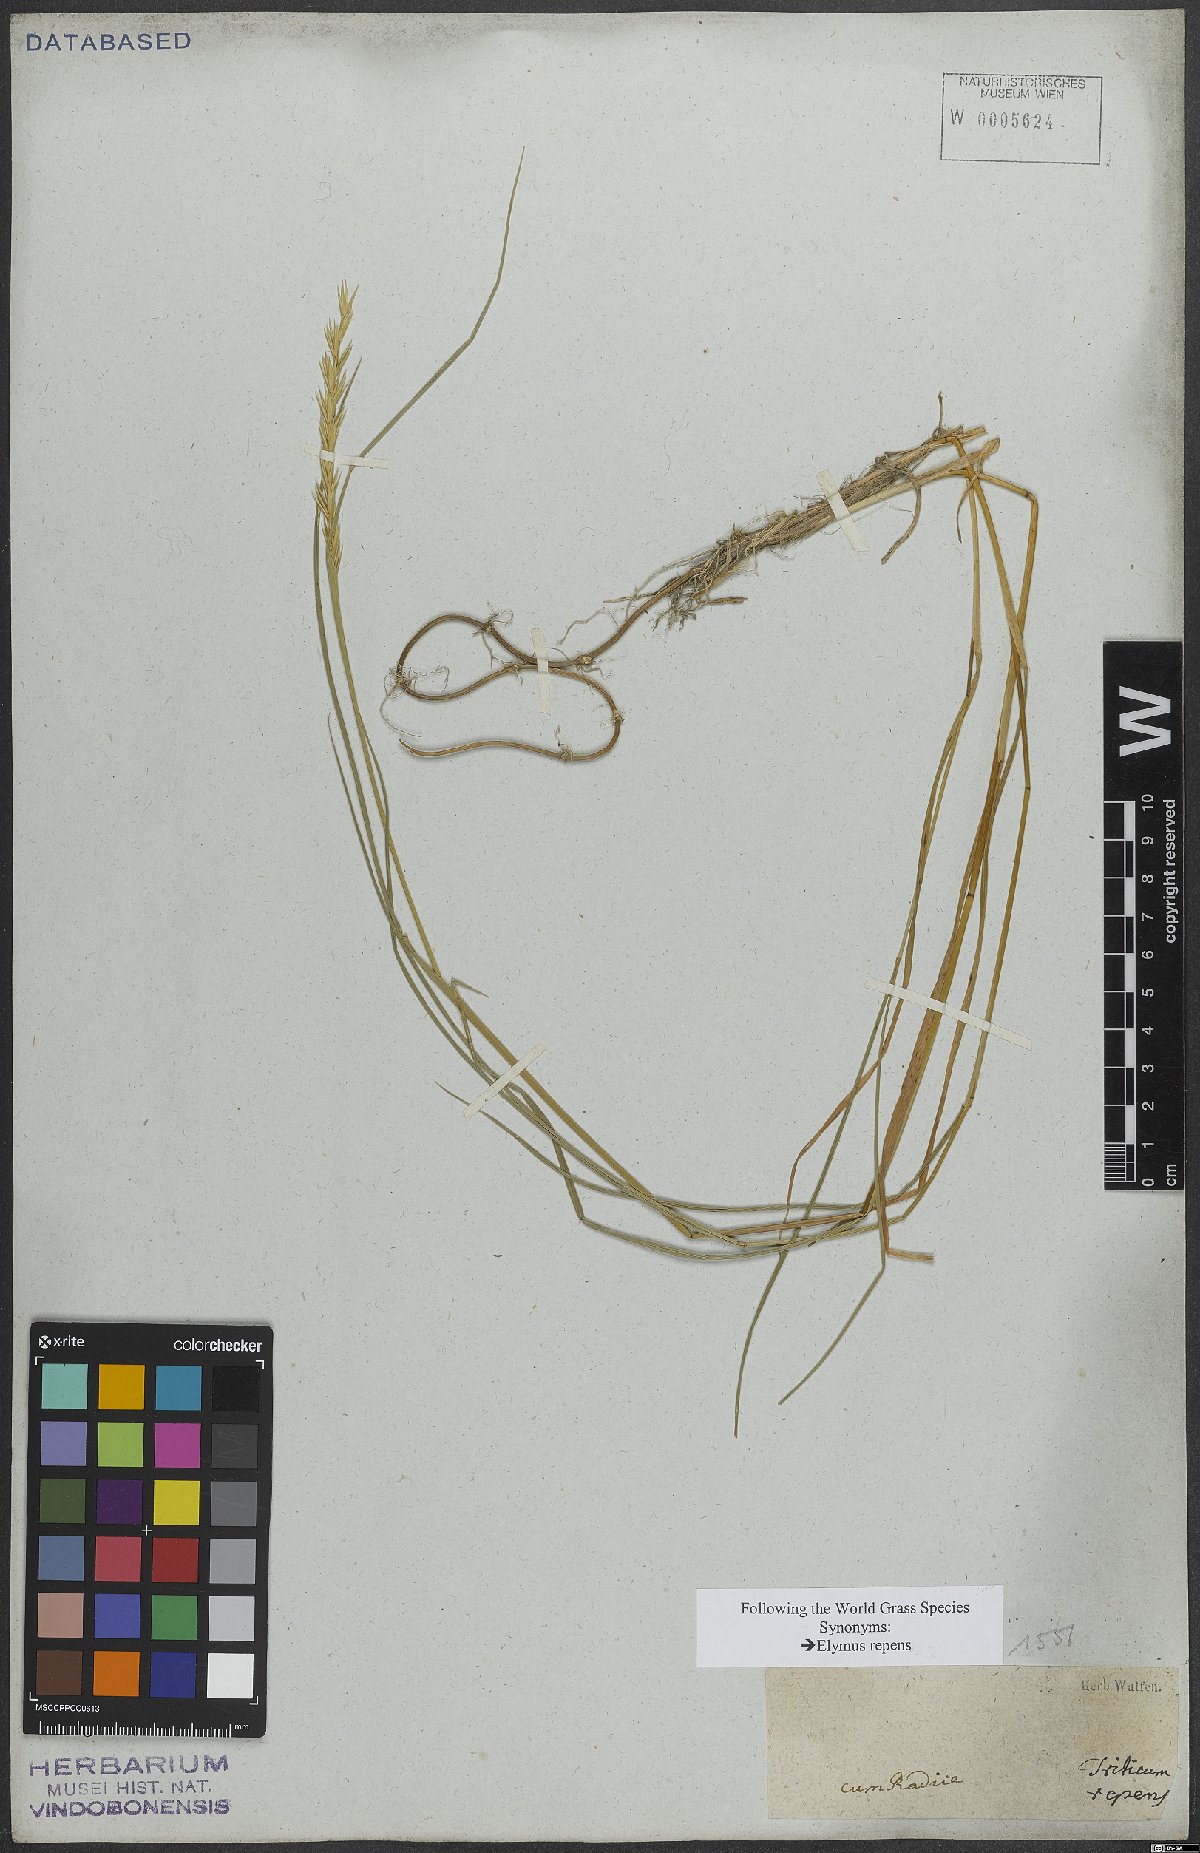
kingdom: Plantae
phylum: Tracheophyta
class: Liliopsida
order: Poales
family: Poaceae
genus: Elymus
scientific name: Elymus repens
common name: Quackgrass
